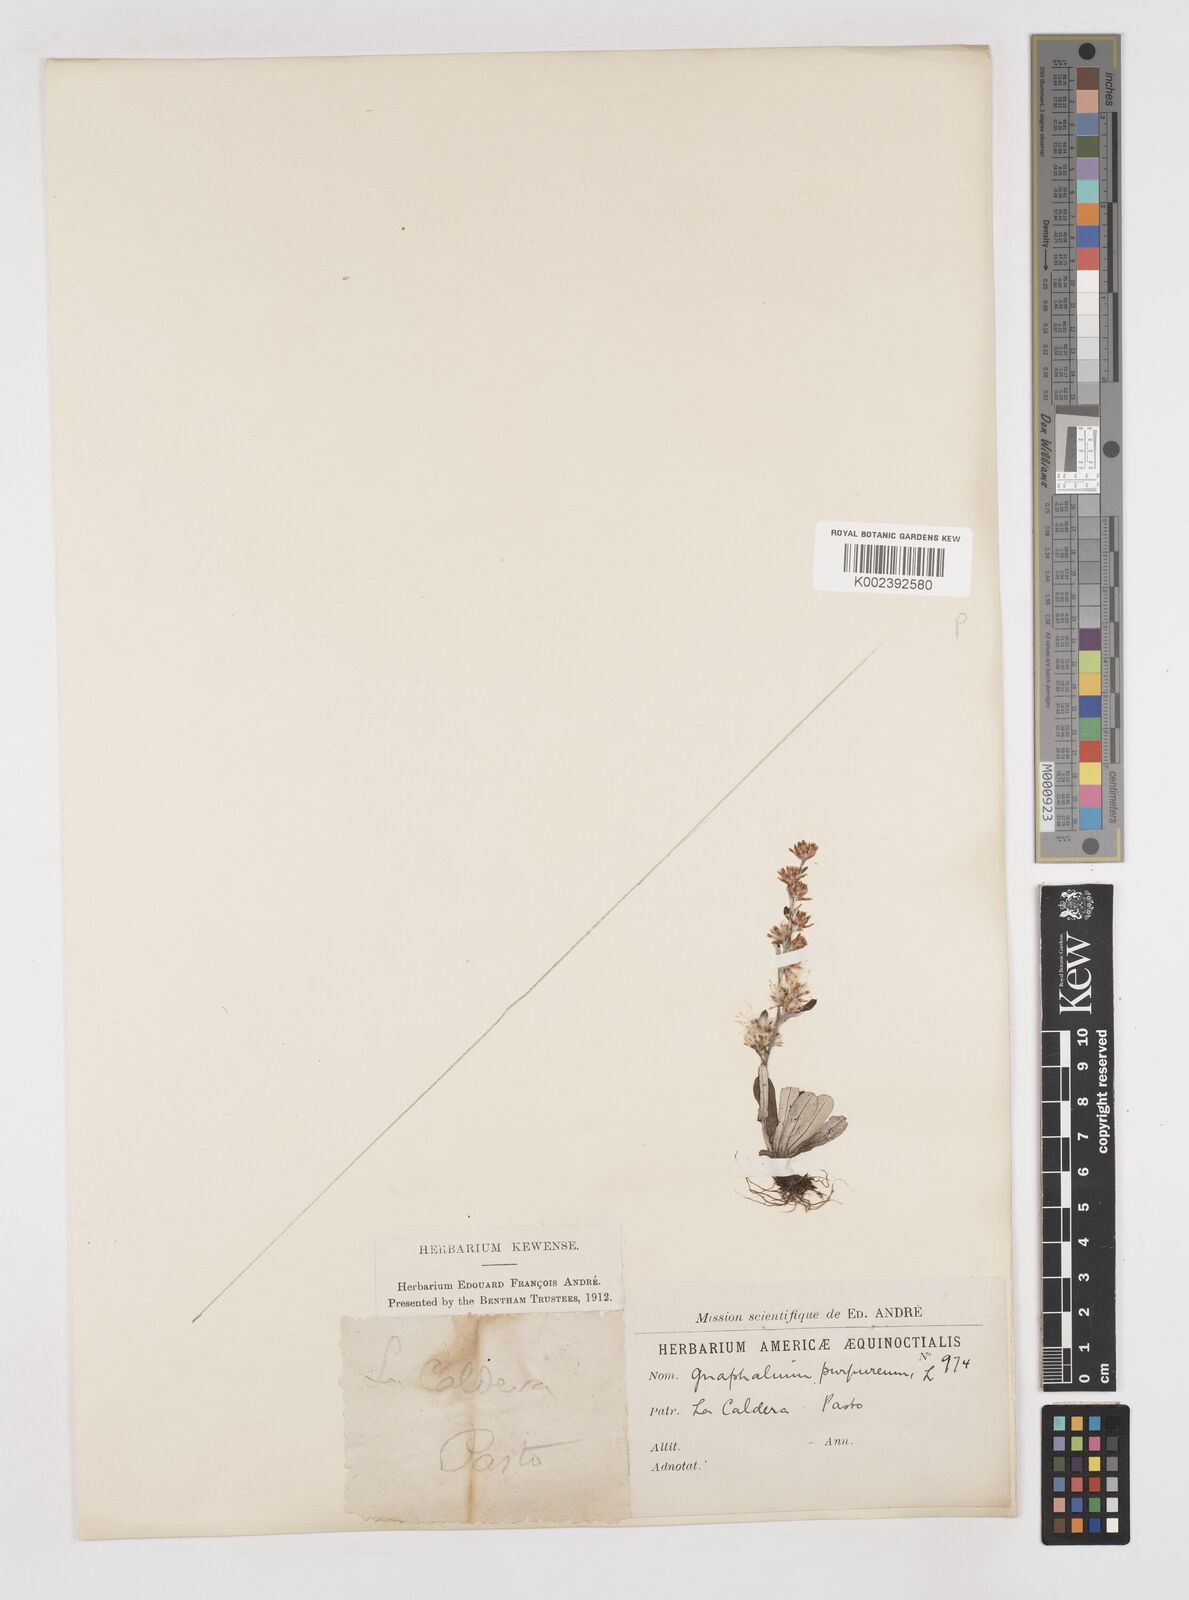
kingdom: Plantae
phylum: Tracheophyta
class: Magnoliopsida
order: Asterales
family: Asteraceae
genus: Pseudognaphalium
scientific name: Pseudognaphalium purpurascens
